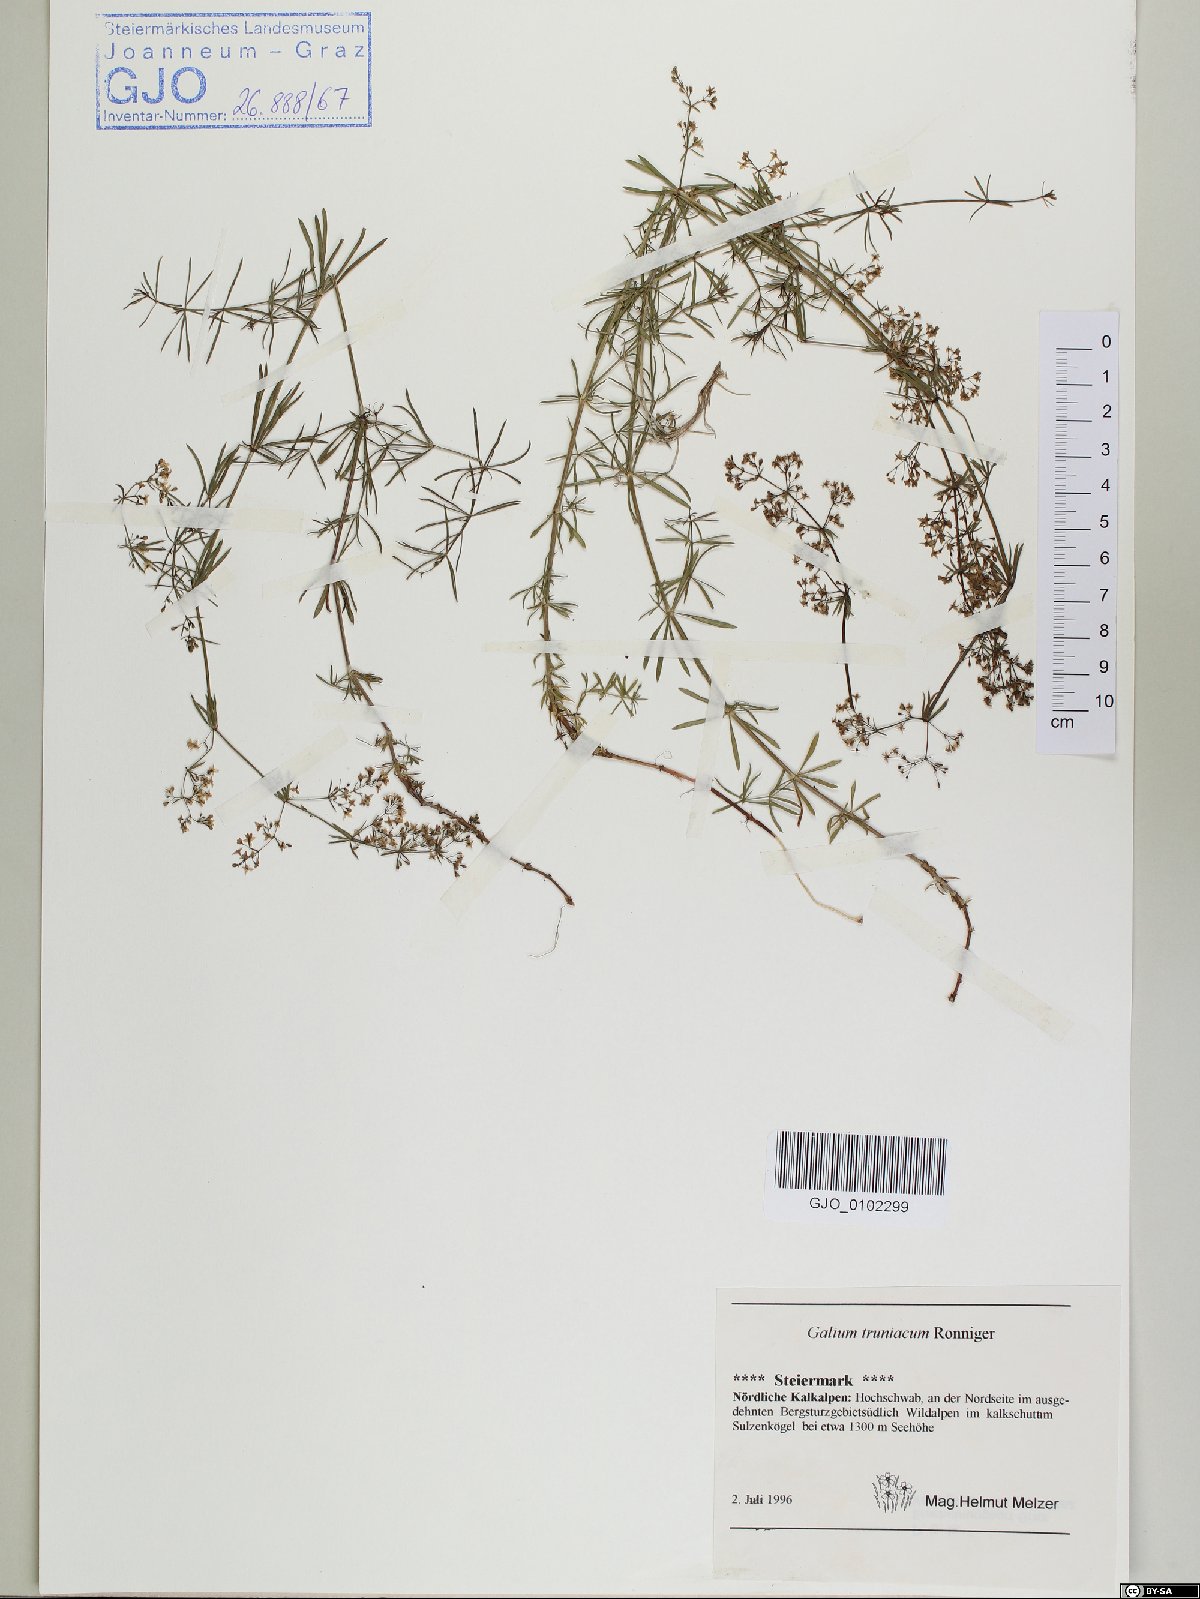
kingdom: Plantae
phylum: Tracheophyta
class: Magnoliopsida
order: Gentianales
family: Rubiaceae
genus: Galium
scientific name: Galium truniacum
